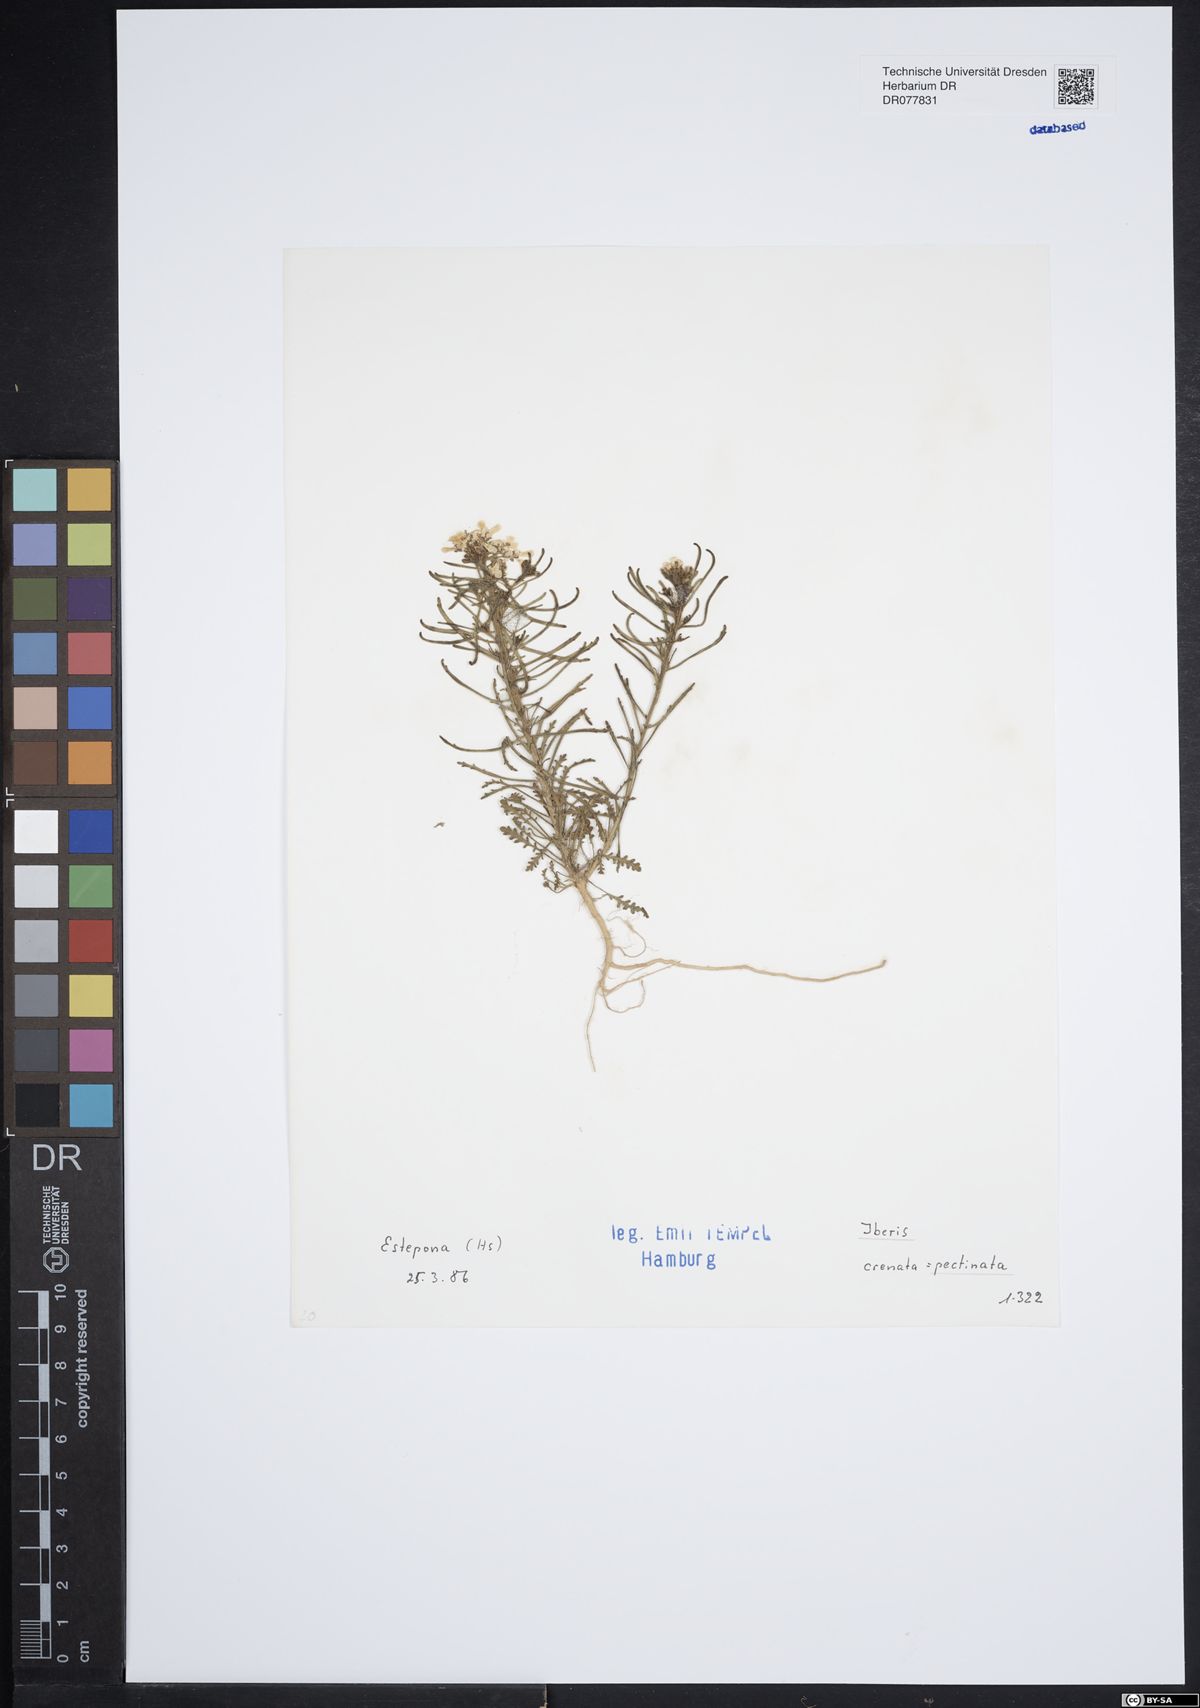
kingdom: Plantae
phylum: Tracheophyta
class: Magnoliopsida
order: Brassicales
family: Brassicaceae
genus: Iberis
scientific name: Iberis pectinata
